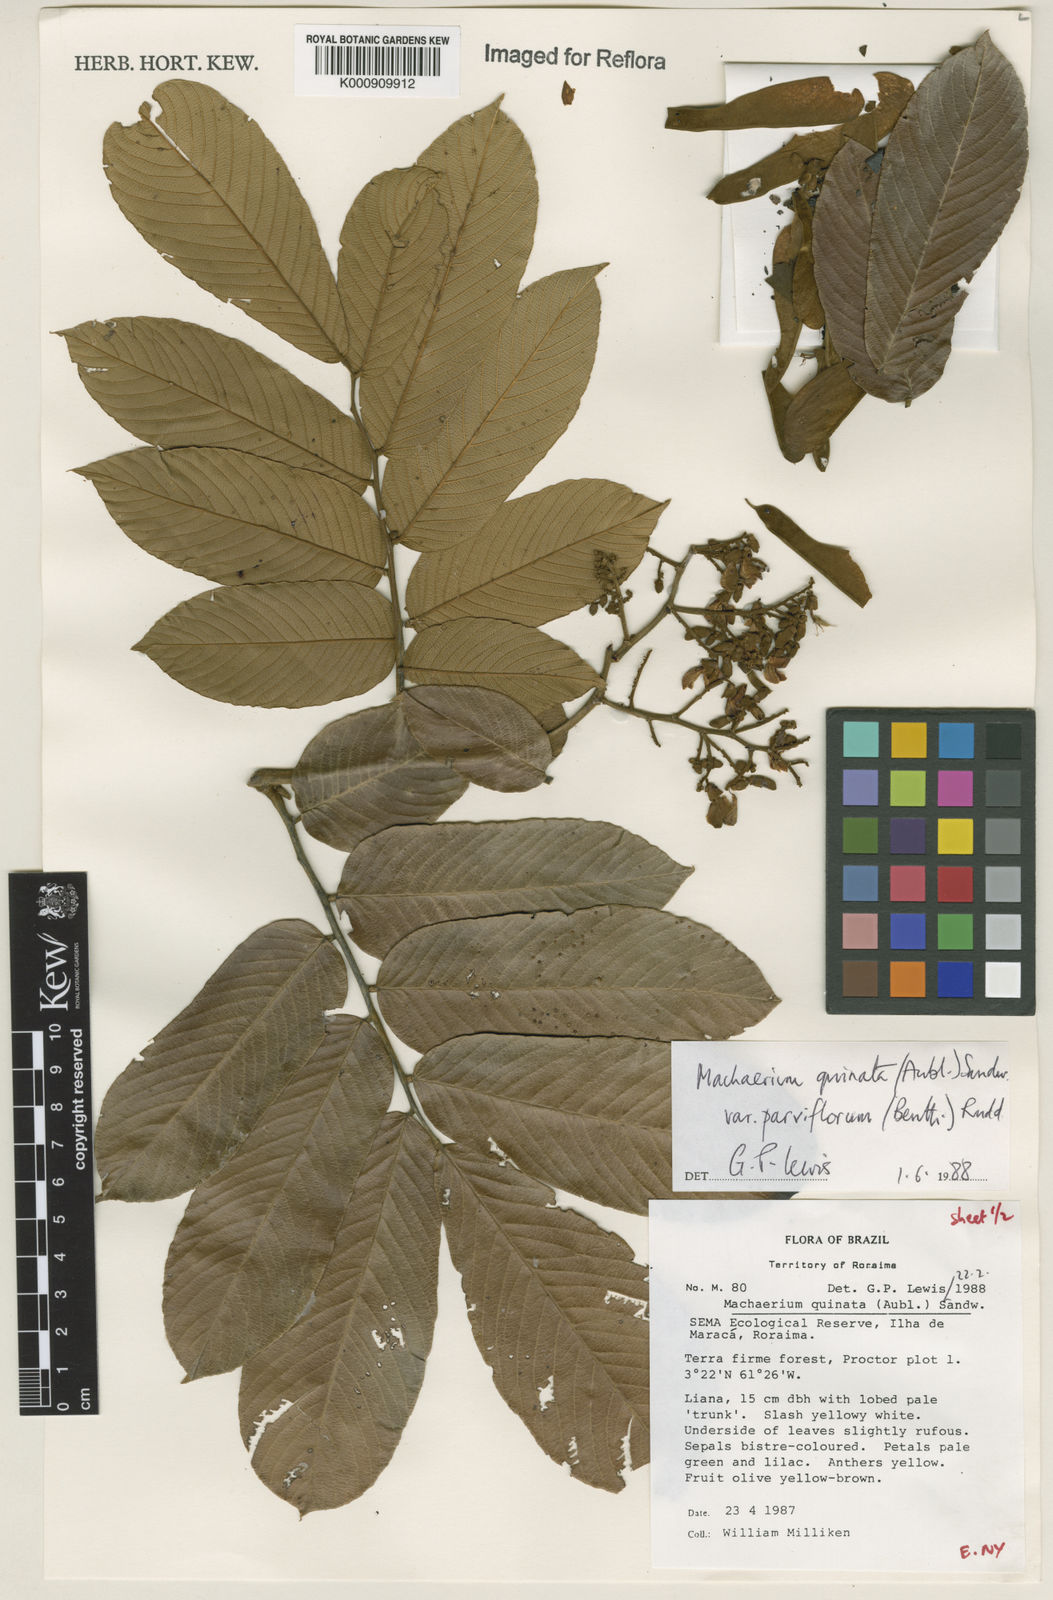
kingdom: Plantae
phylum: Tracheophyta
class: Magnoliopsida
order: Fabales
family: Fabaceae
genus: Machaerium
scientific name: Machaerium quinata
